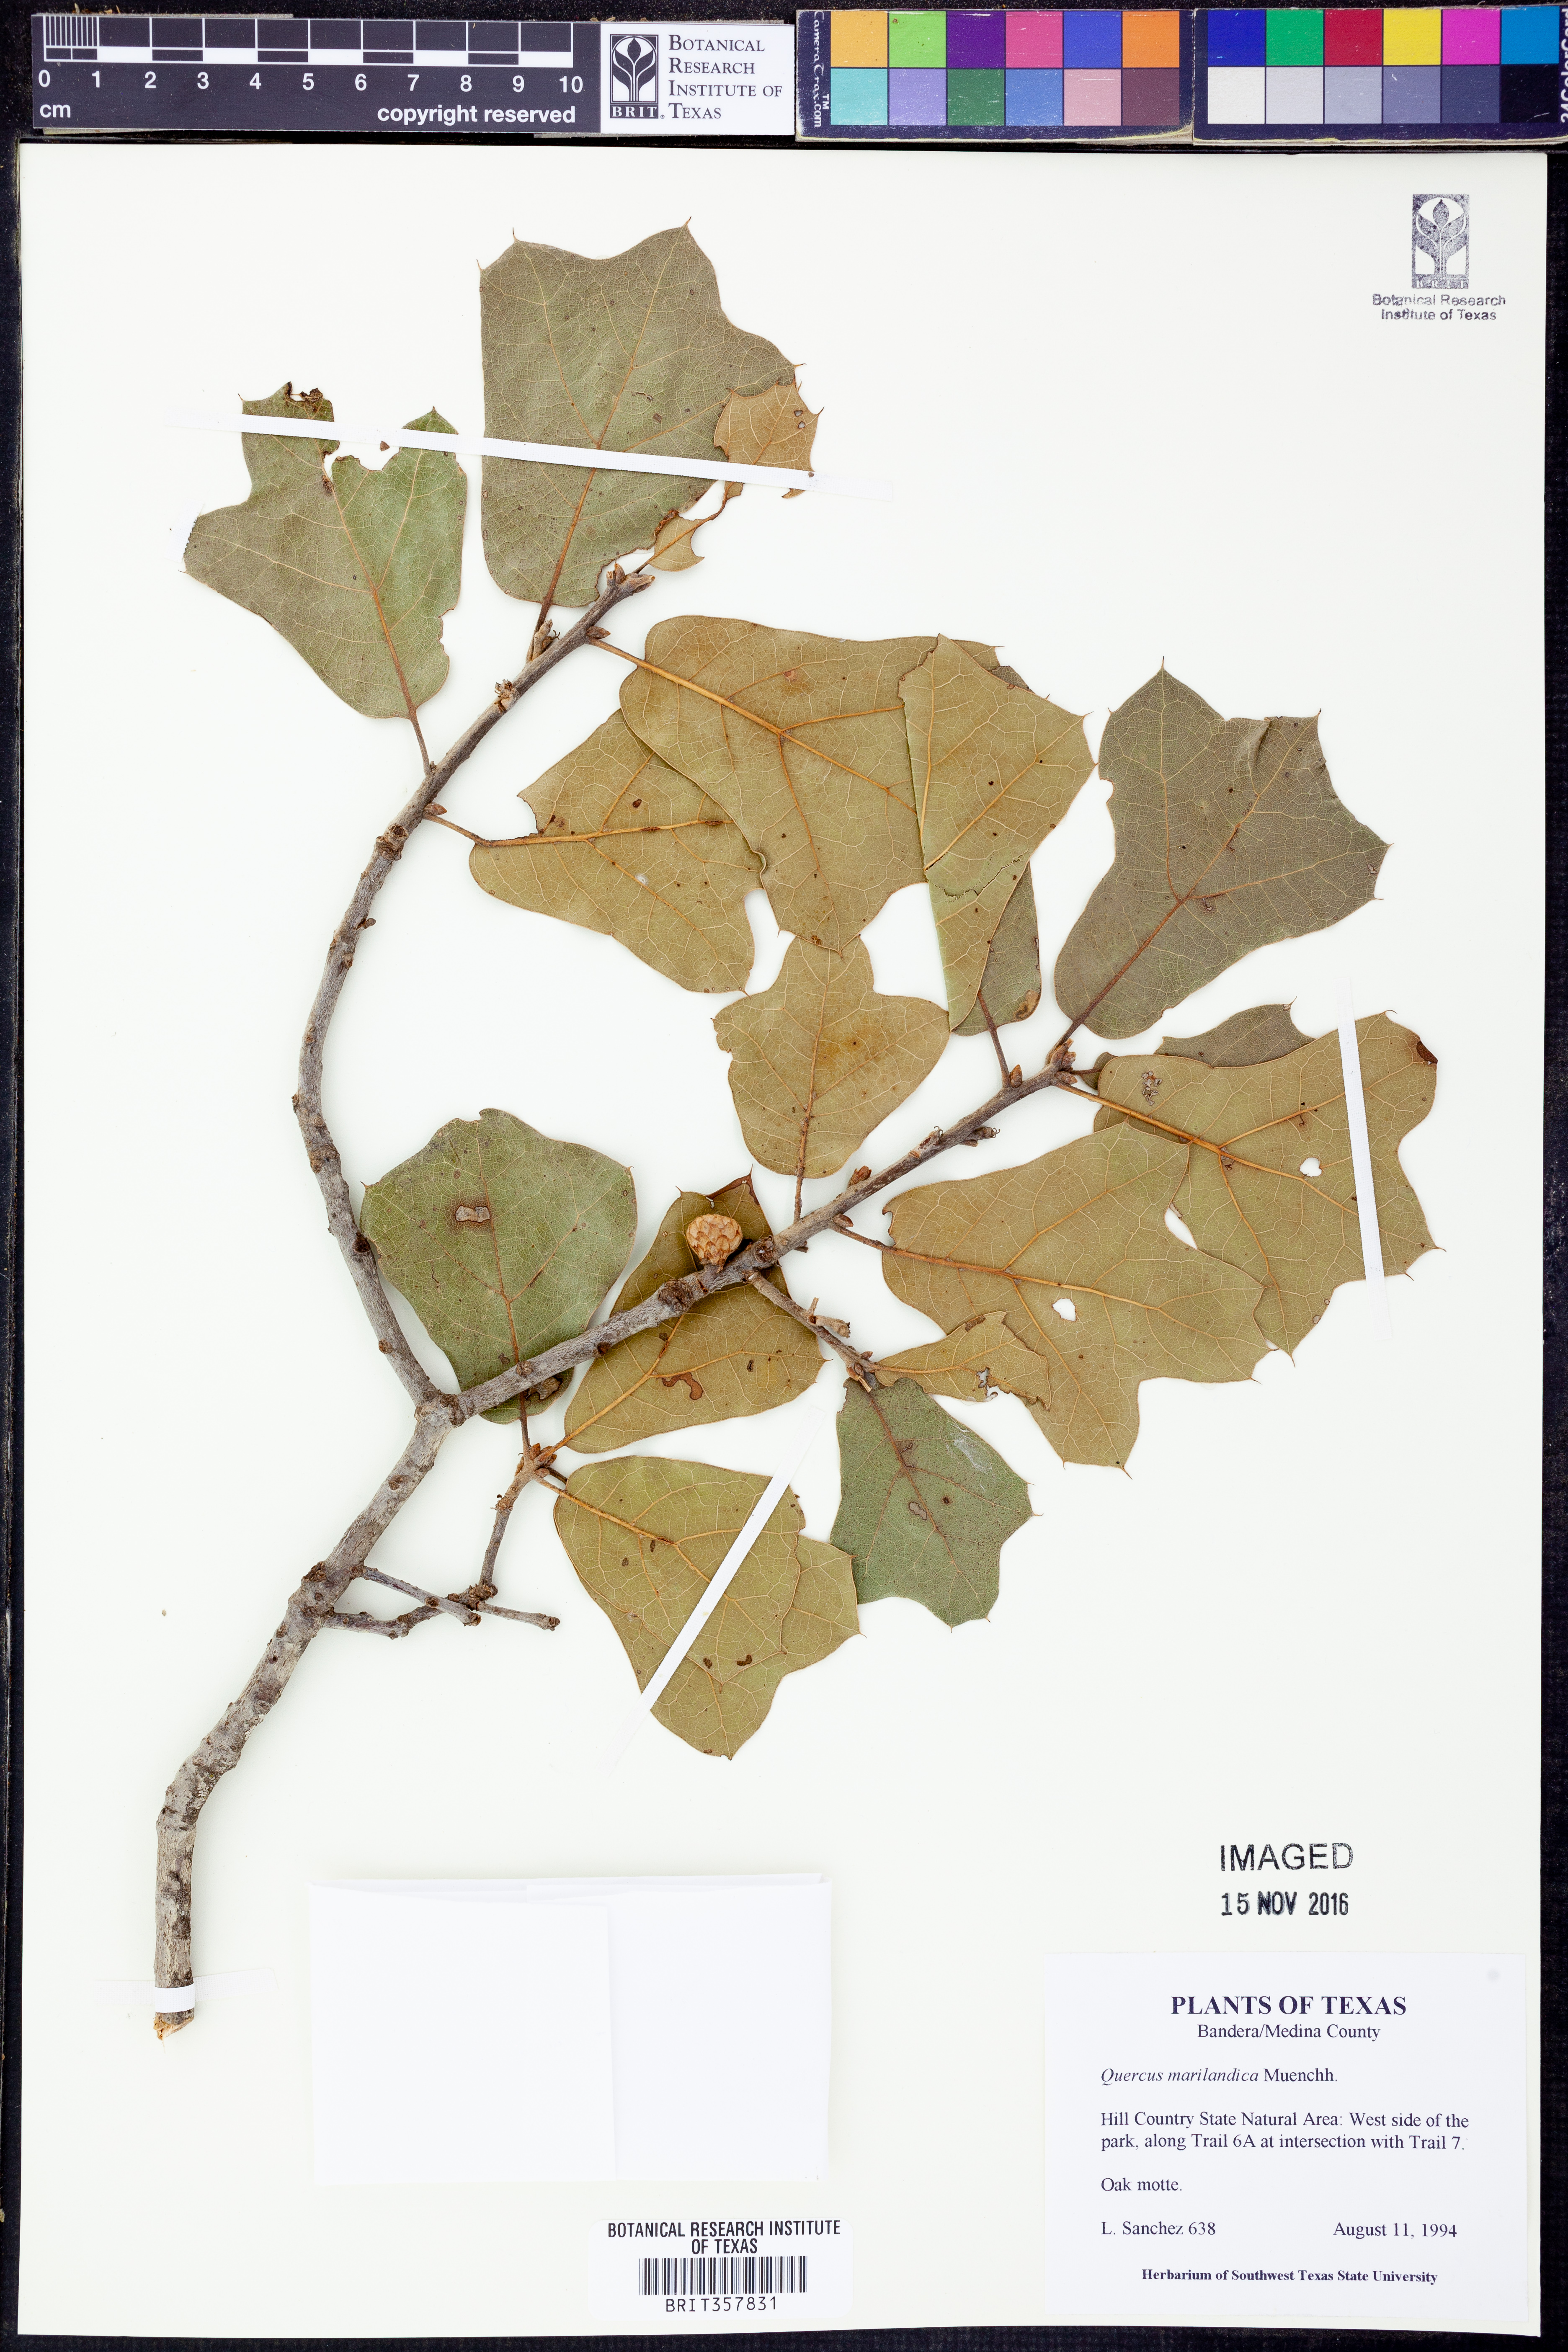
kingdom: Plantae
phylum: Tracheophyta
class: Magnoliopsida
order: Fagales
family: Fagaceae
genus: Quercus
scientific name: Quercus marilandica
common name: Blackjack oak
